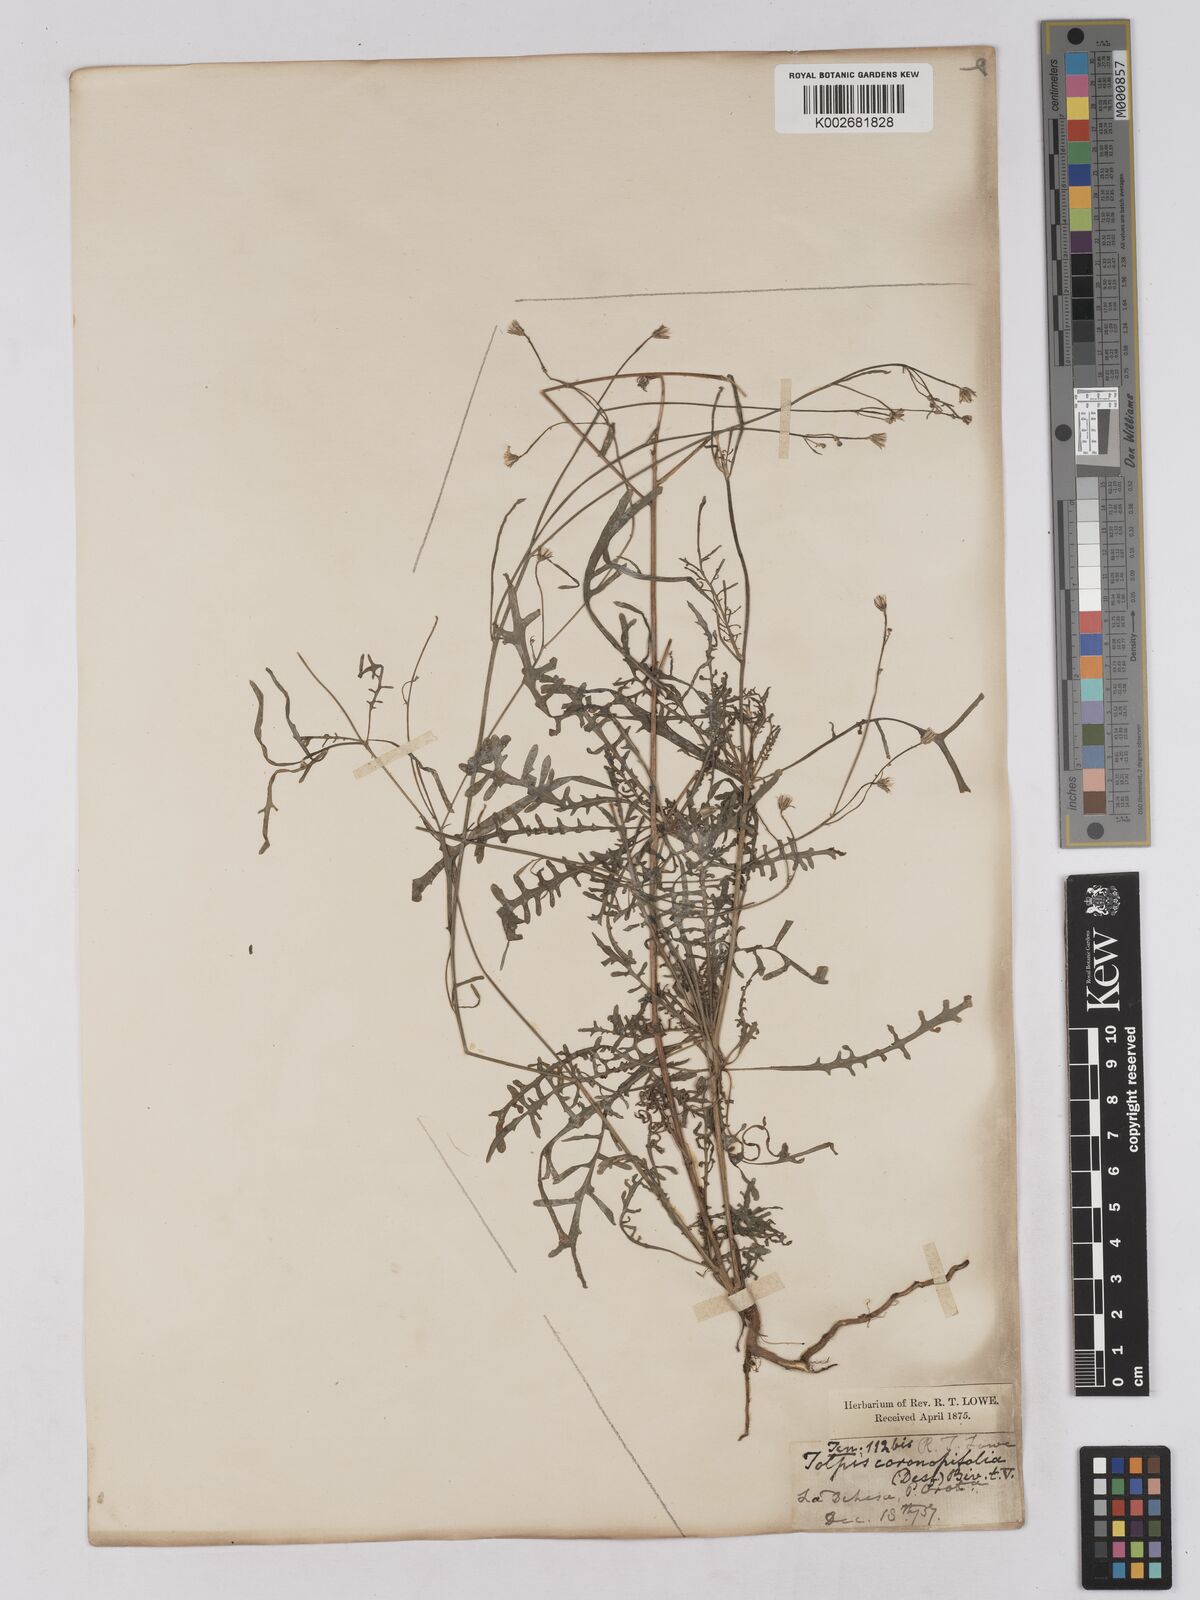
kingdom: Plantae
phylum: Tracheophyta
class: Magnoliopsida
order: Asterales
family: Asteraceae
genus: Tolpis
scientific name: Tolpis coronopifolia
